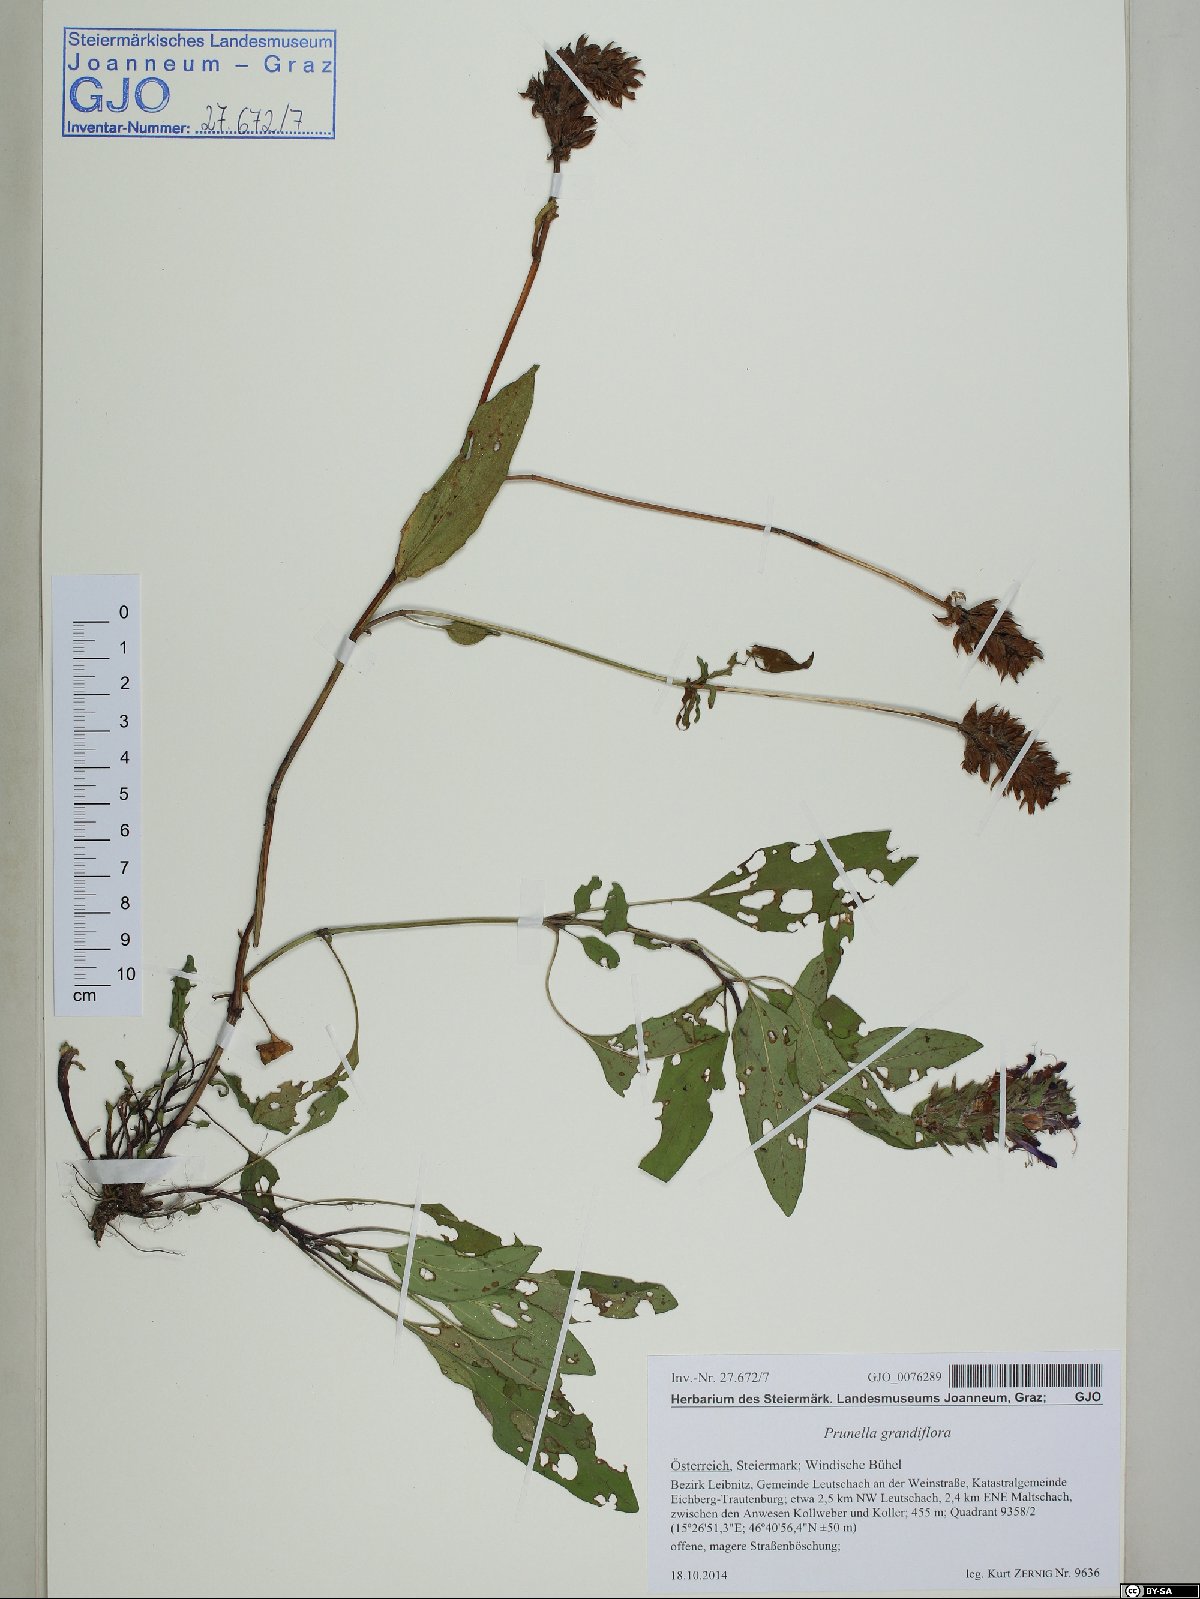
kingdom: Plantae
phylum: Tracheophyta
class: Magnoliopsida
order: Lamiales
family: Lamiaceae
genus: Prunella
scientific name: Prunella grandiflora
